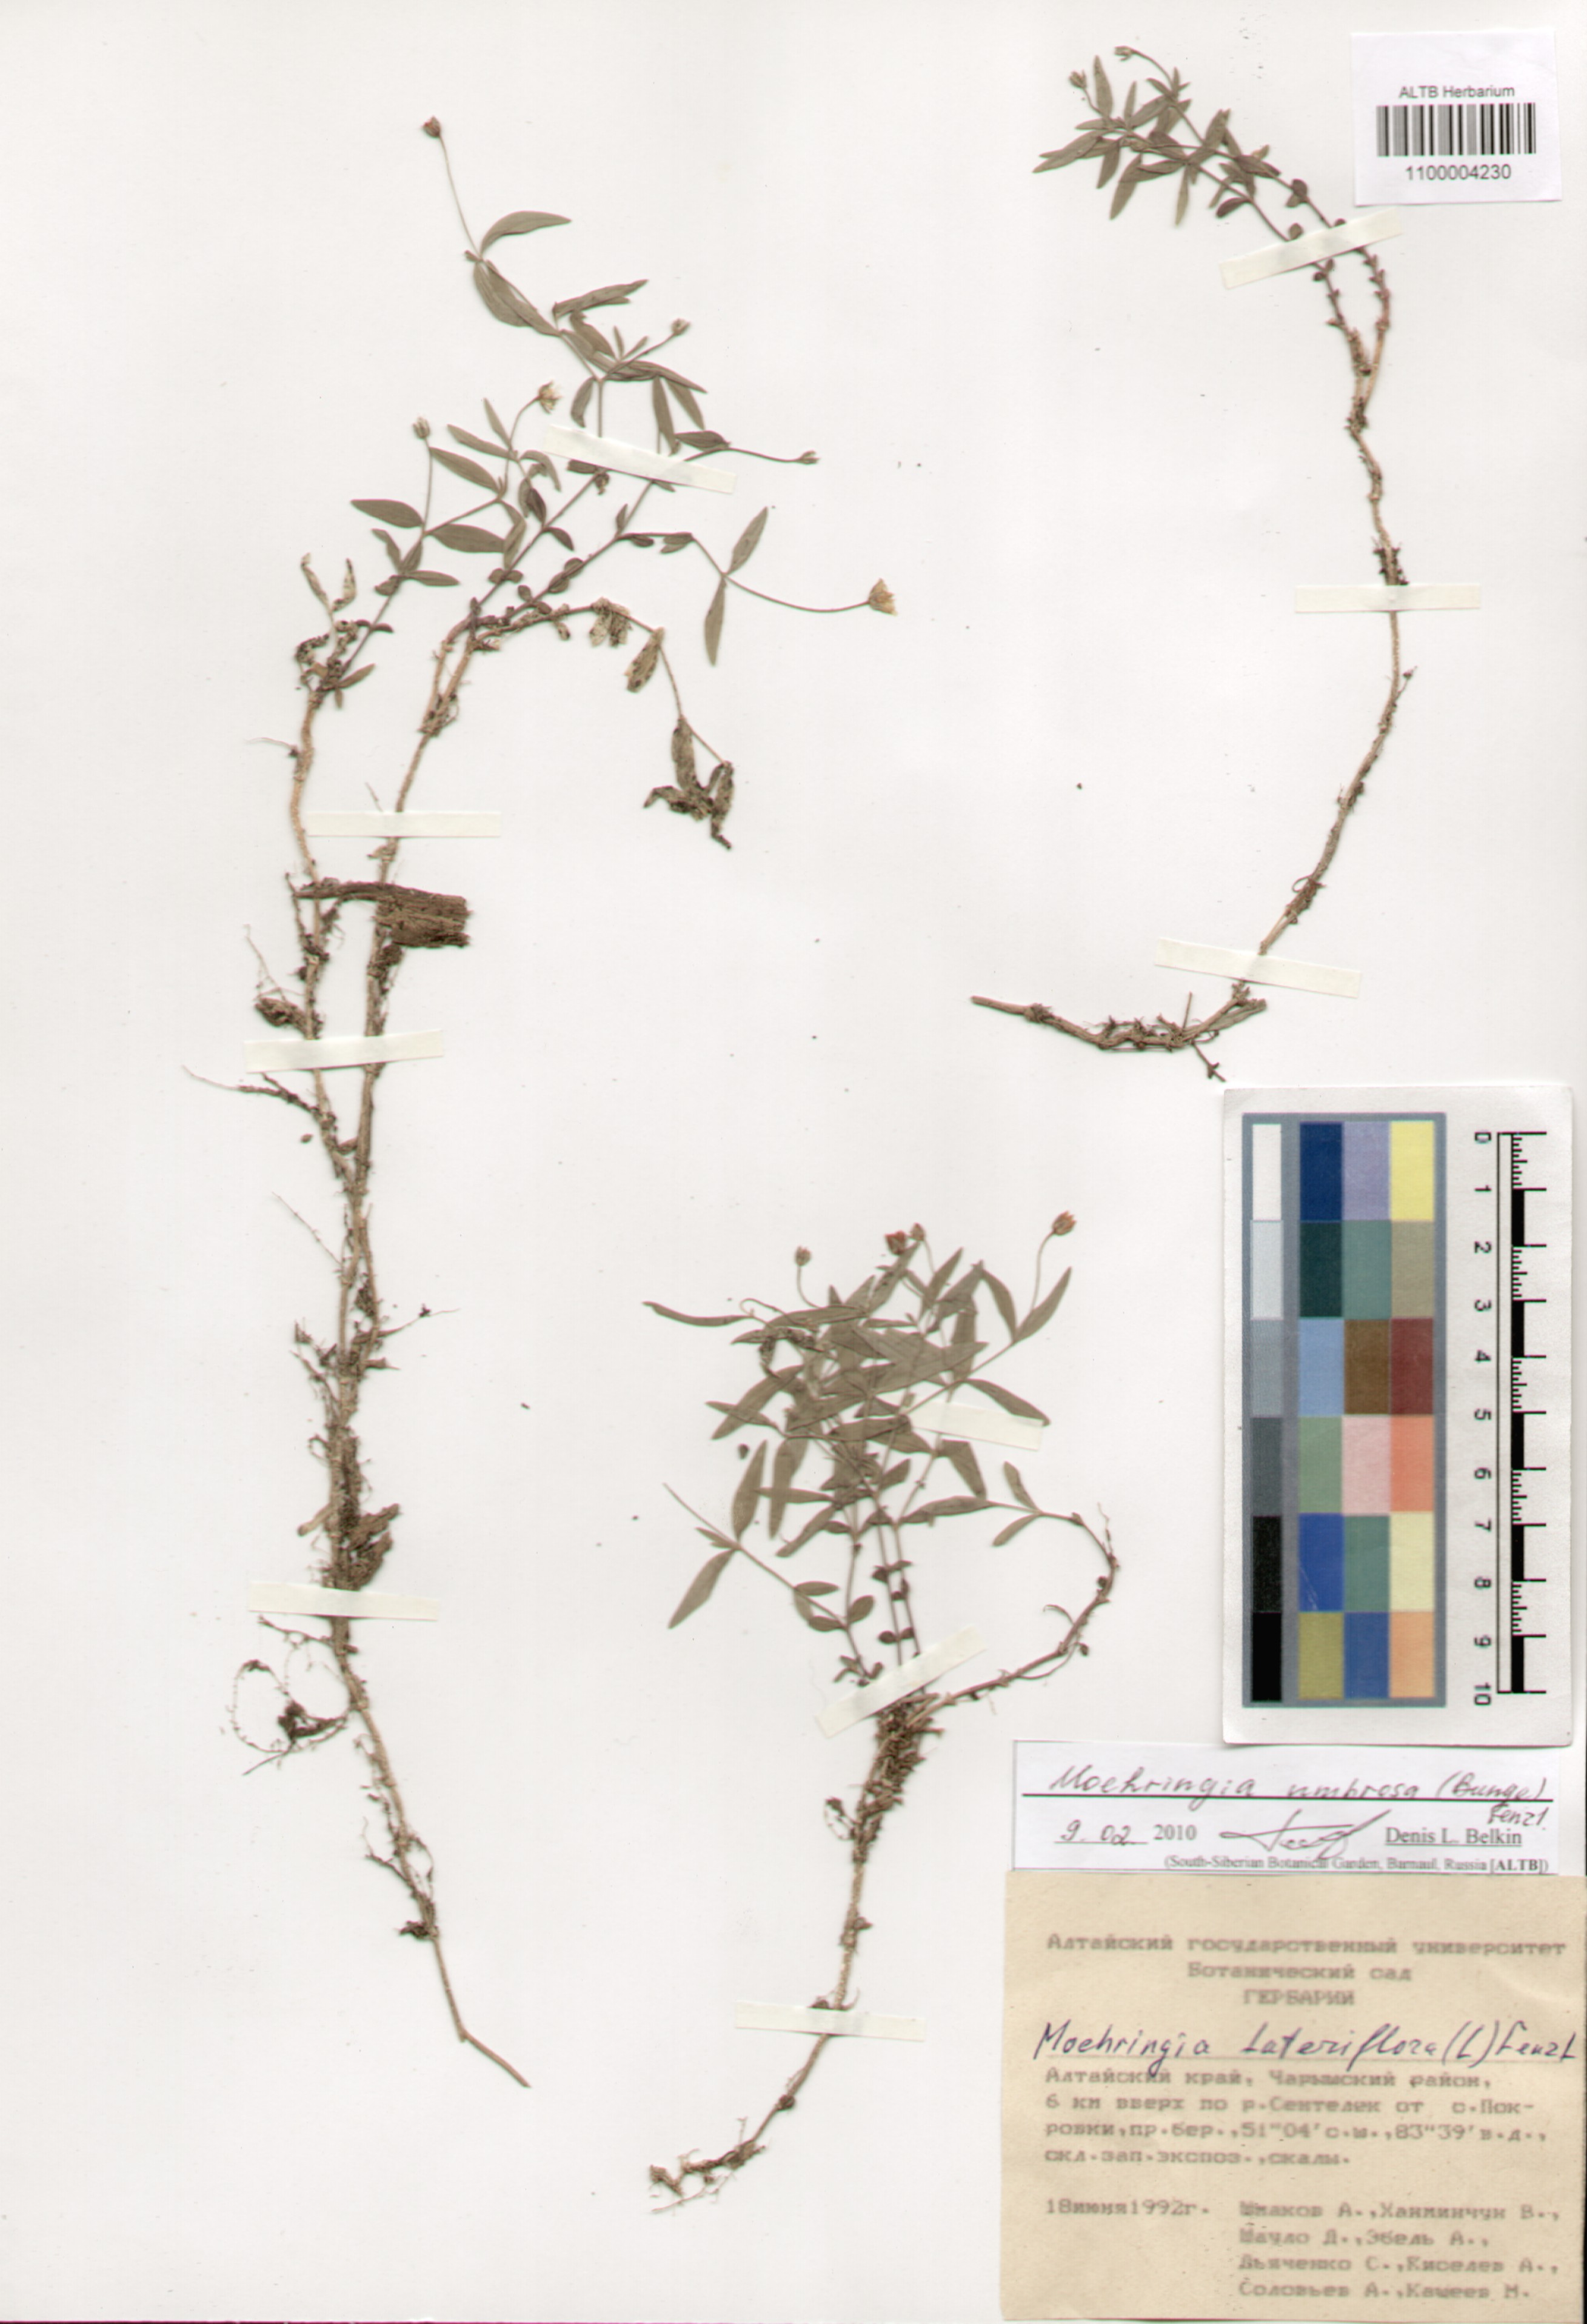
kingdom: Plantae
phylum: Tracheophyta
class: Magnoliopsida
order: Caryophyllales
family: Caryophyllaceae
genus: Moehringia
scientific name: Moehringia umbrosa
